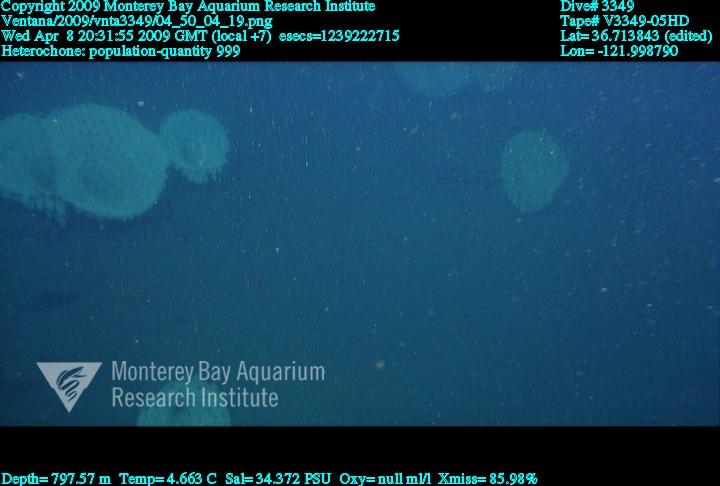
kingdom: Animalia
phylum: Porifera
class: Hexactinellida
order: Sceptrulophora
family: Aphrocallistidae
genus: Heterochone
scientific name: Heterochone
